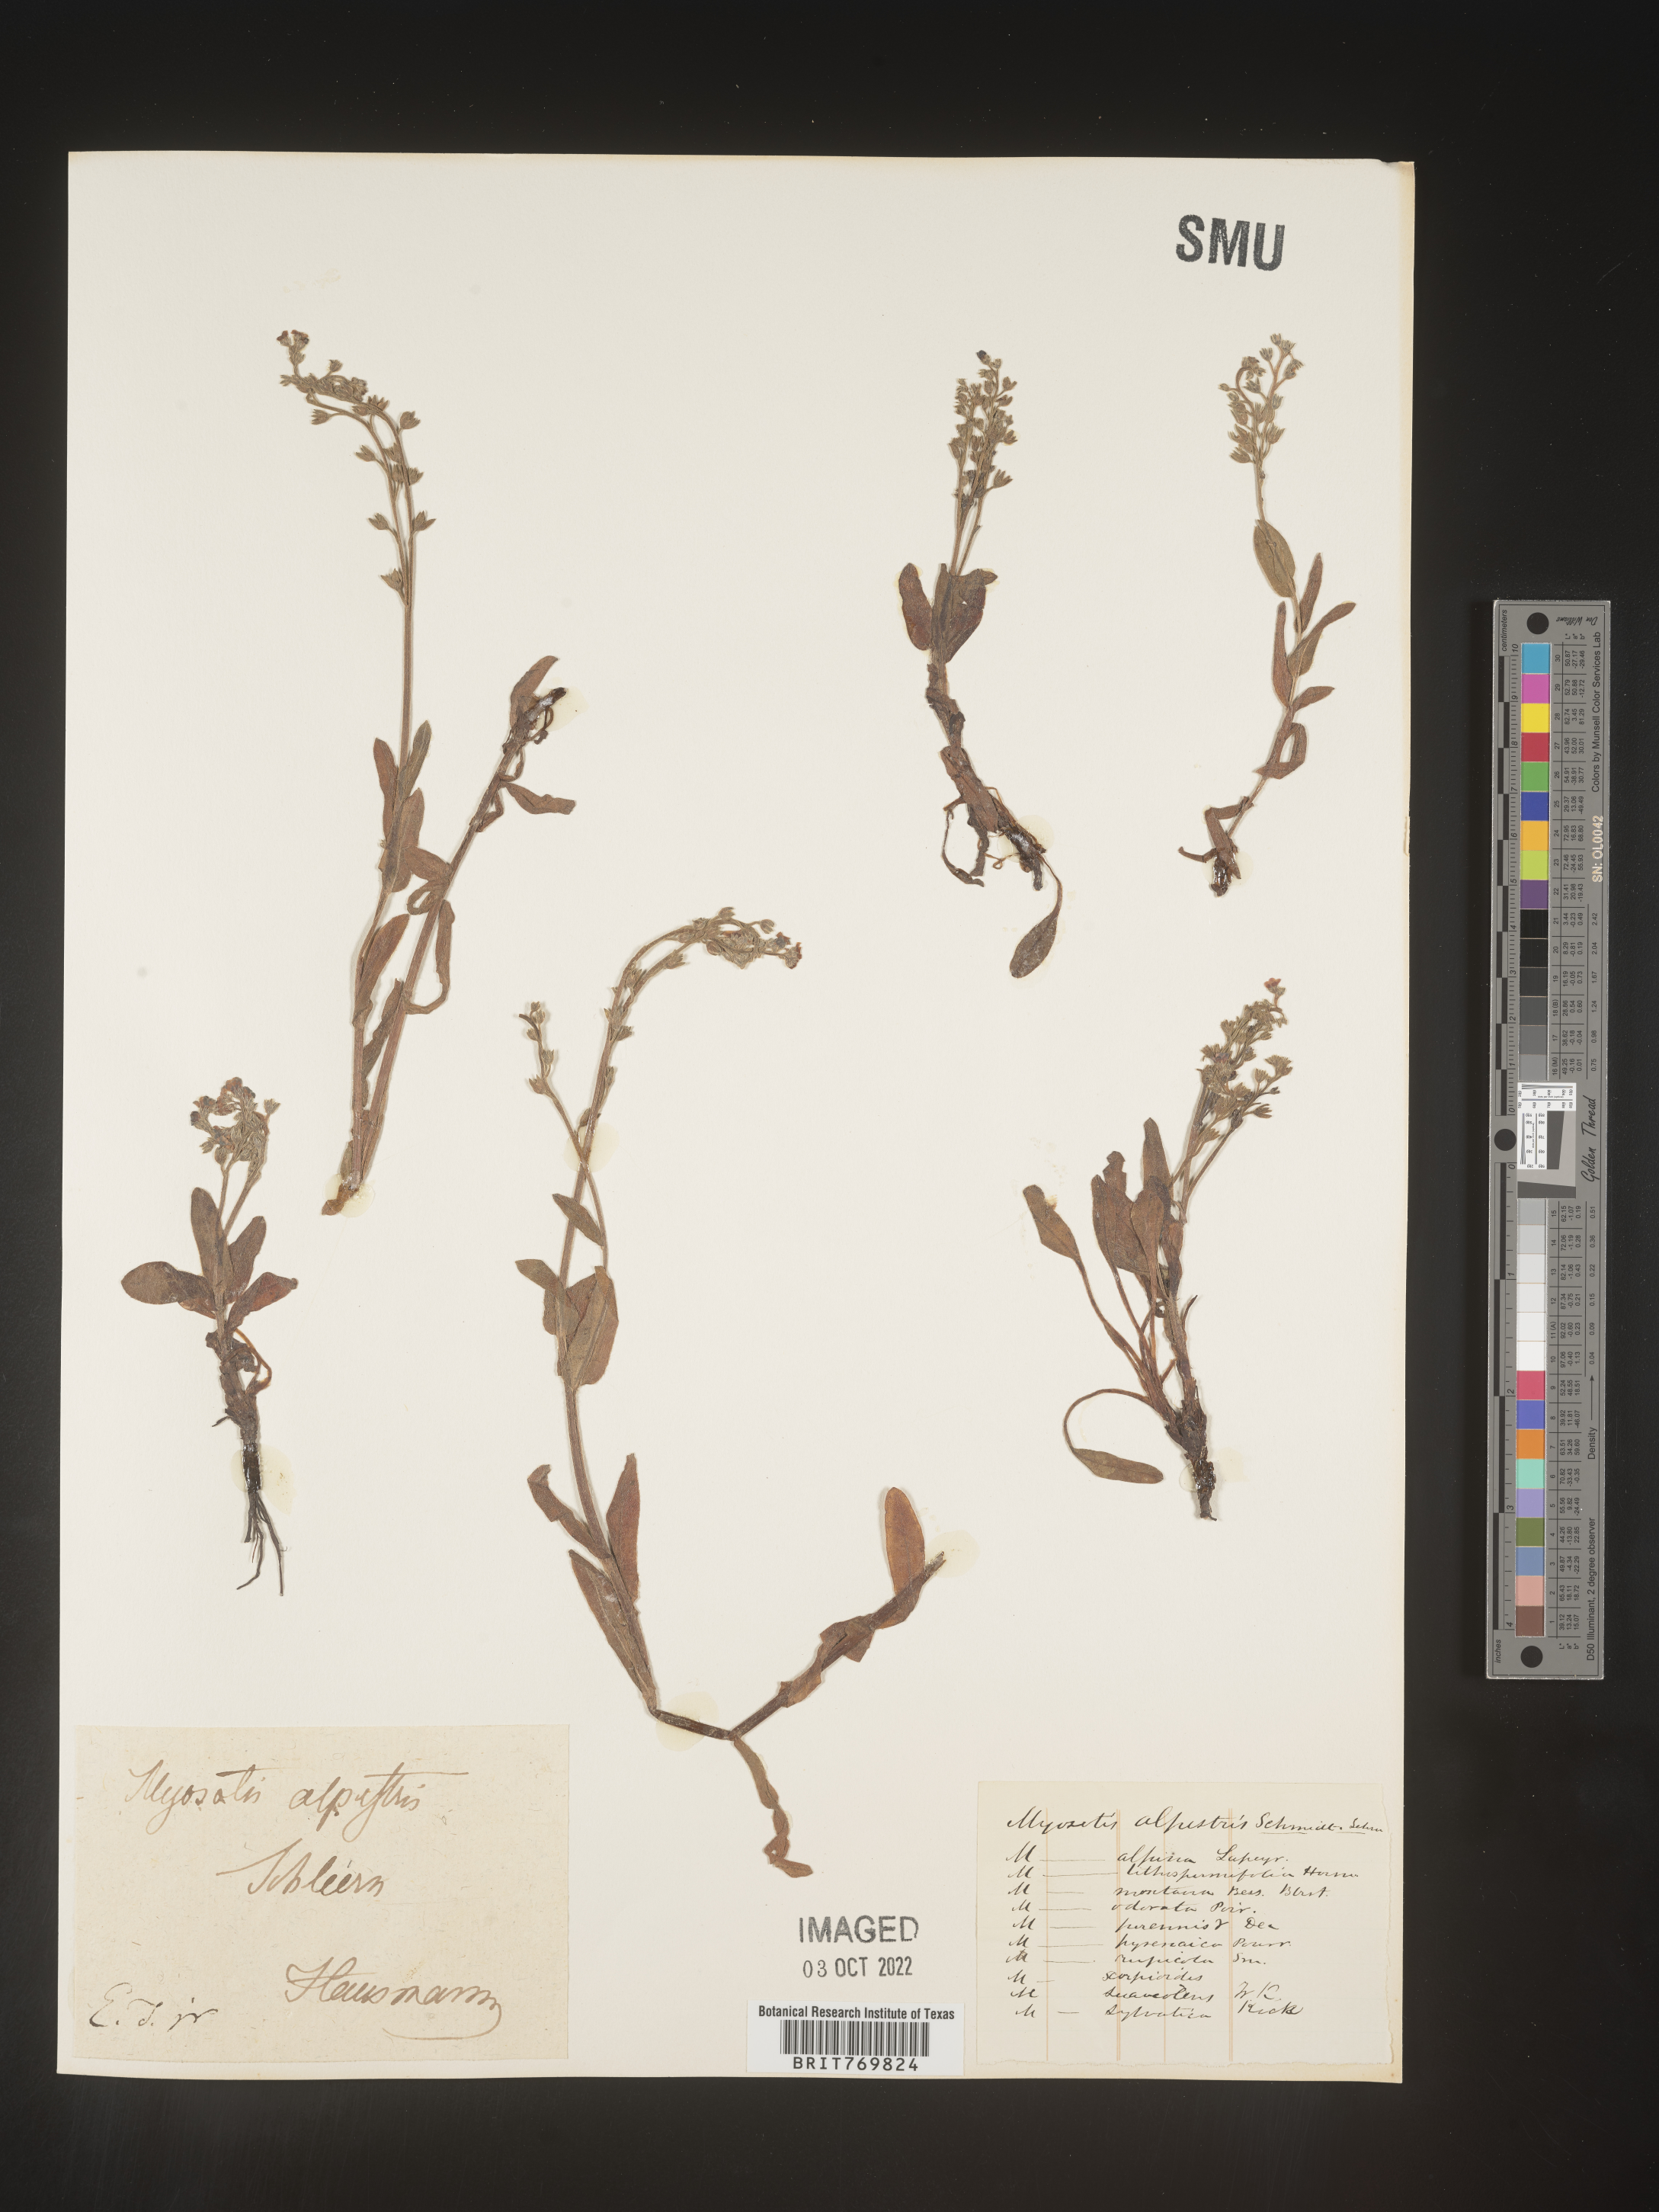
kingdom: Plantae
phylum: Tracheophyta
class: Magnoliopsida
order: Boraginales
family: Boraginaceae
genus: Myosotis
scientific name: Myosotis
